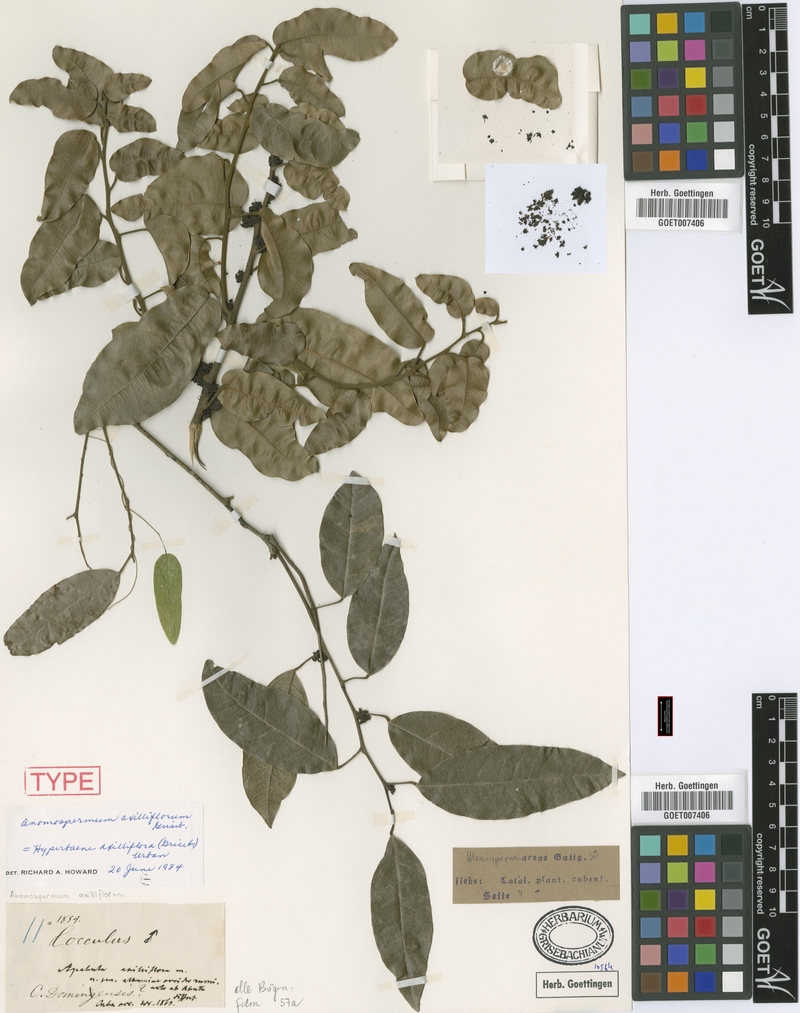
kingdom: Plantae
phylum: Tracheophyta
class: Magnoliopsida
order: Ranunculales
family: Menispermaceae
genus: Hyperbaena
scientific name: Hyperbaena axilliflora
